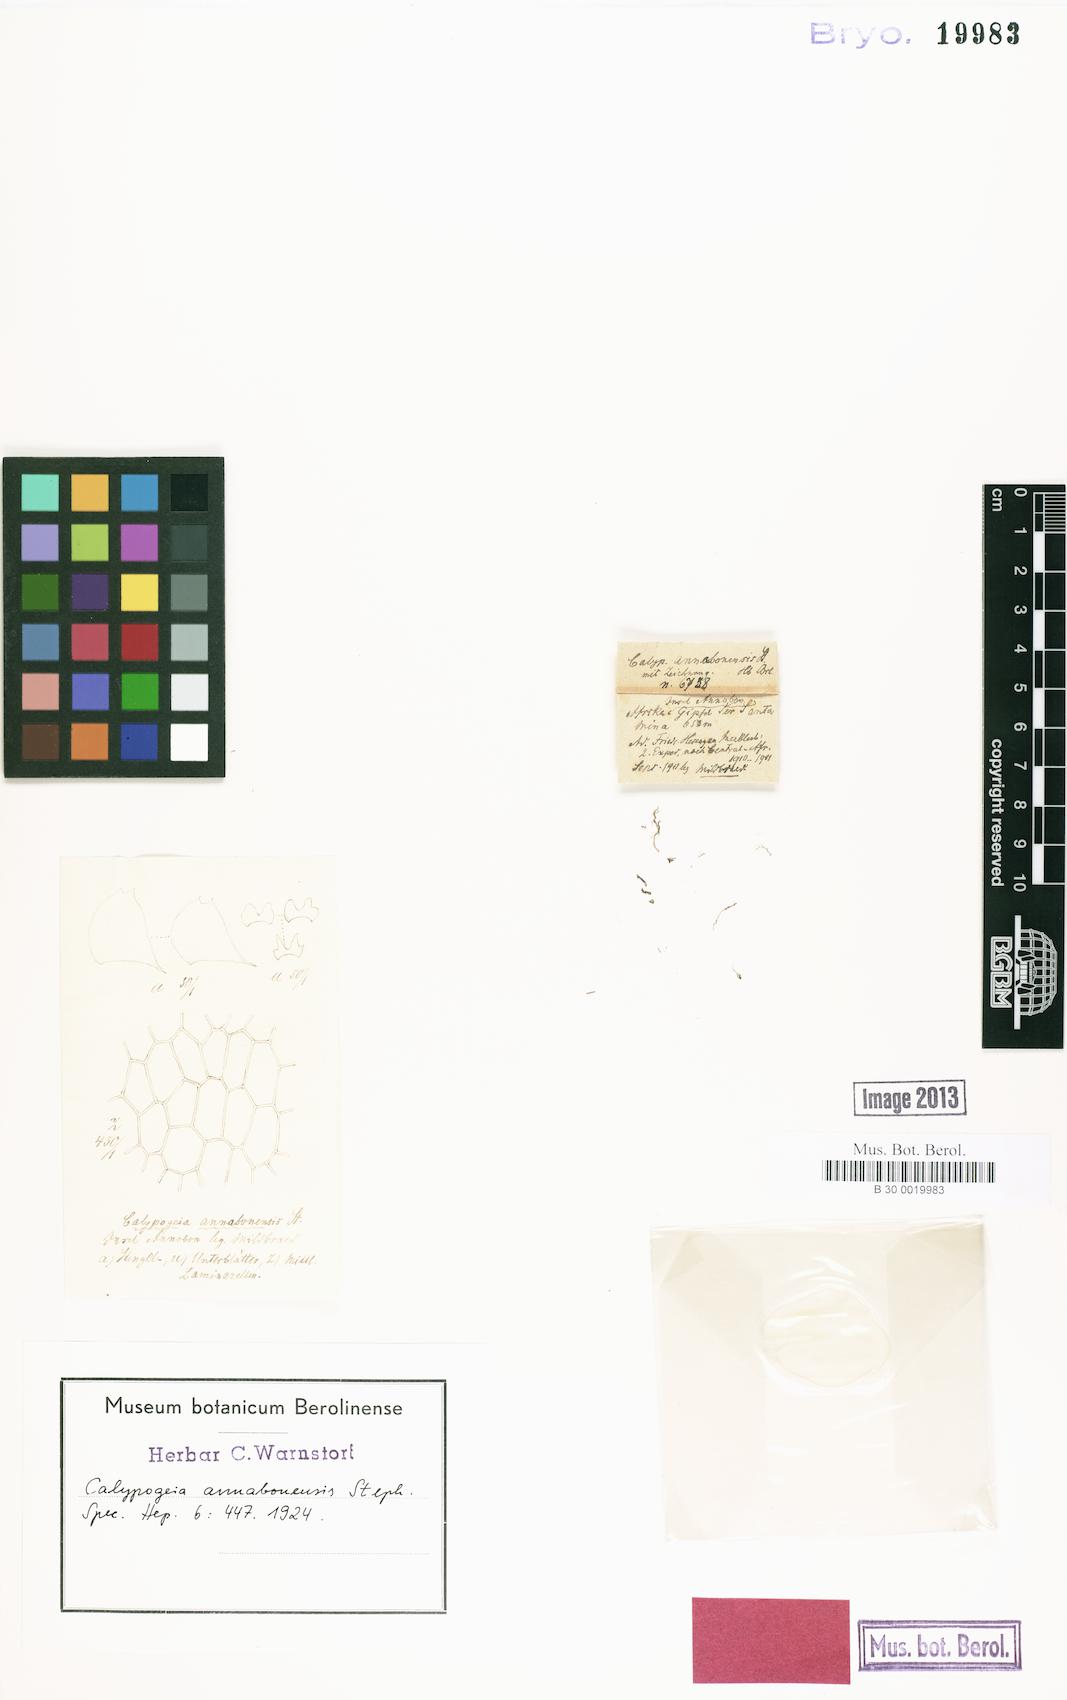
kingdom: Plantae
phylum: Marchantiophyta
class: Jungermanniopsida
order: Jungermanniales
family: Calypogeiaceae
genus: Calypogeia
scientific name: Calypogeia annabonensis
